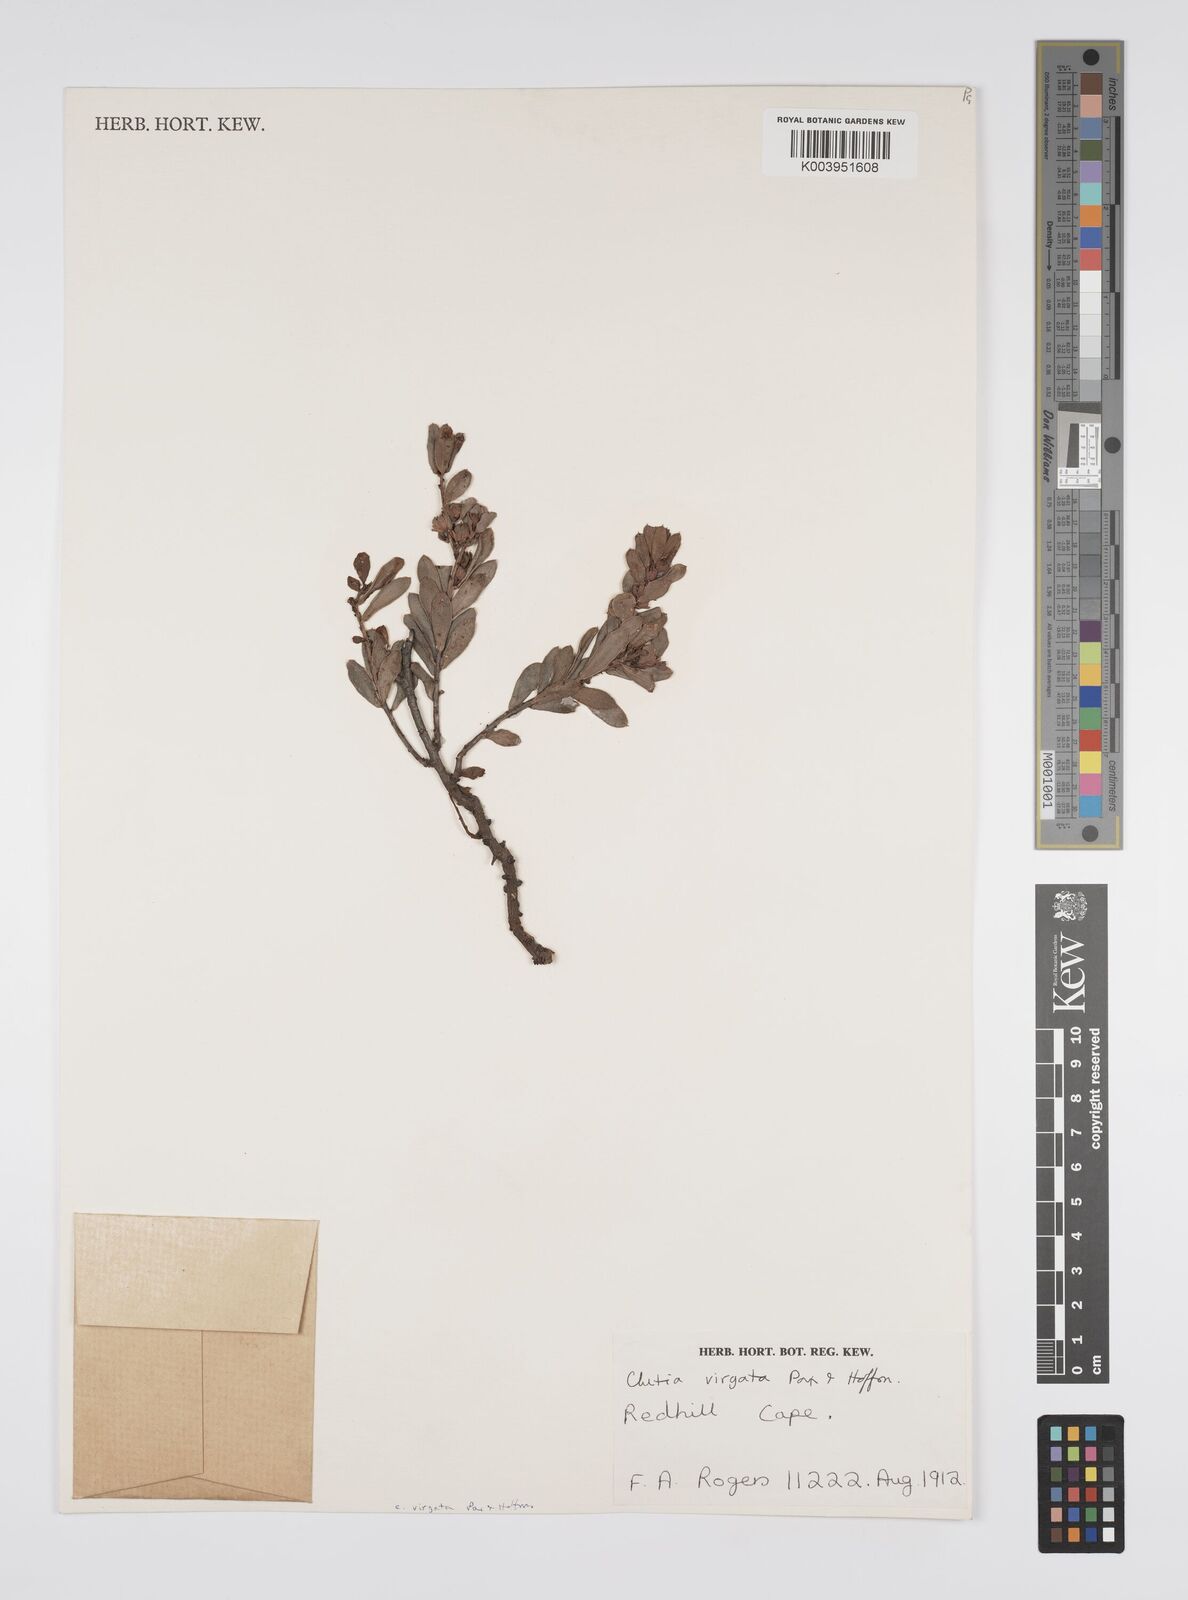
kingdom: Plantae
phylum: Tracheophyta
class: Magnoliopsida
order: Malpighiales
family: Peraceae
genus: Clutia
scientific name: Clutia virgata
